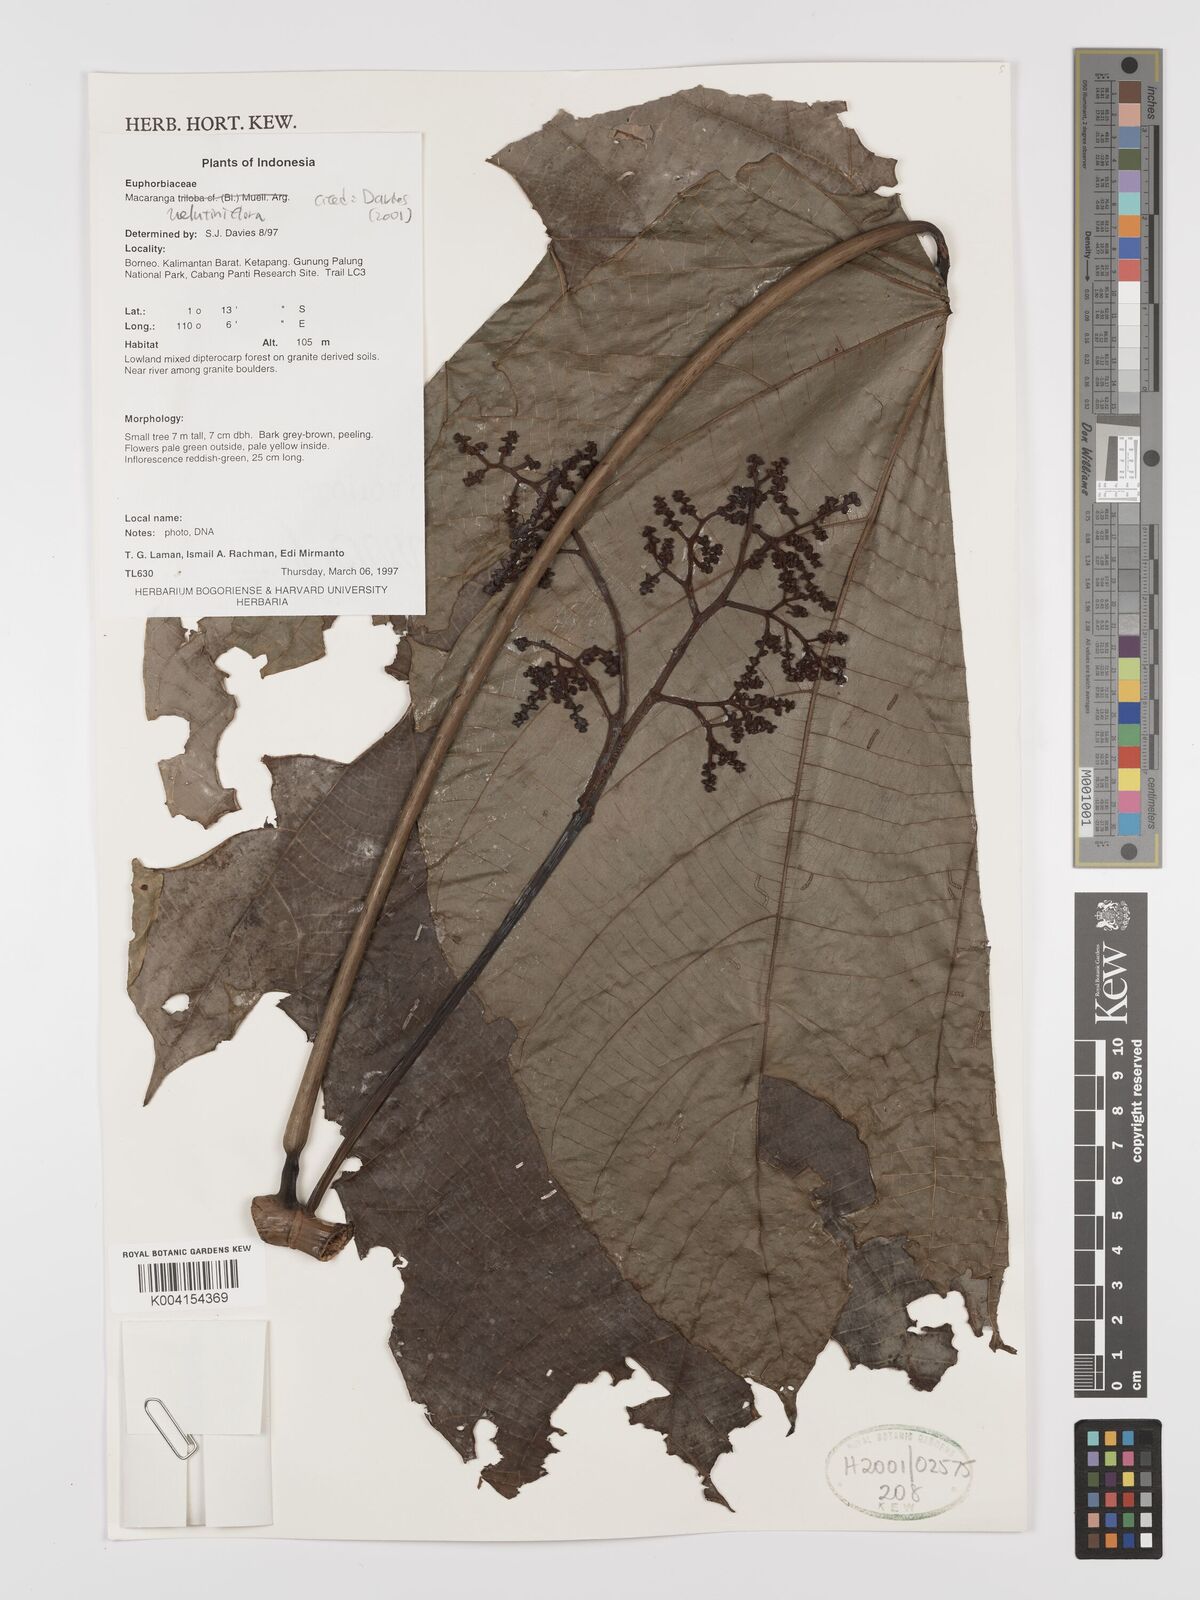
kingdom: Plantae
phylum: Tracheophyta
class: Magnoliopsida
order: Malpighiales
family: Euphorbiaceae
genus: Macaranga
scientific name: Macaranga velutiniflora
